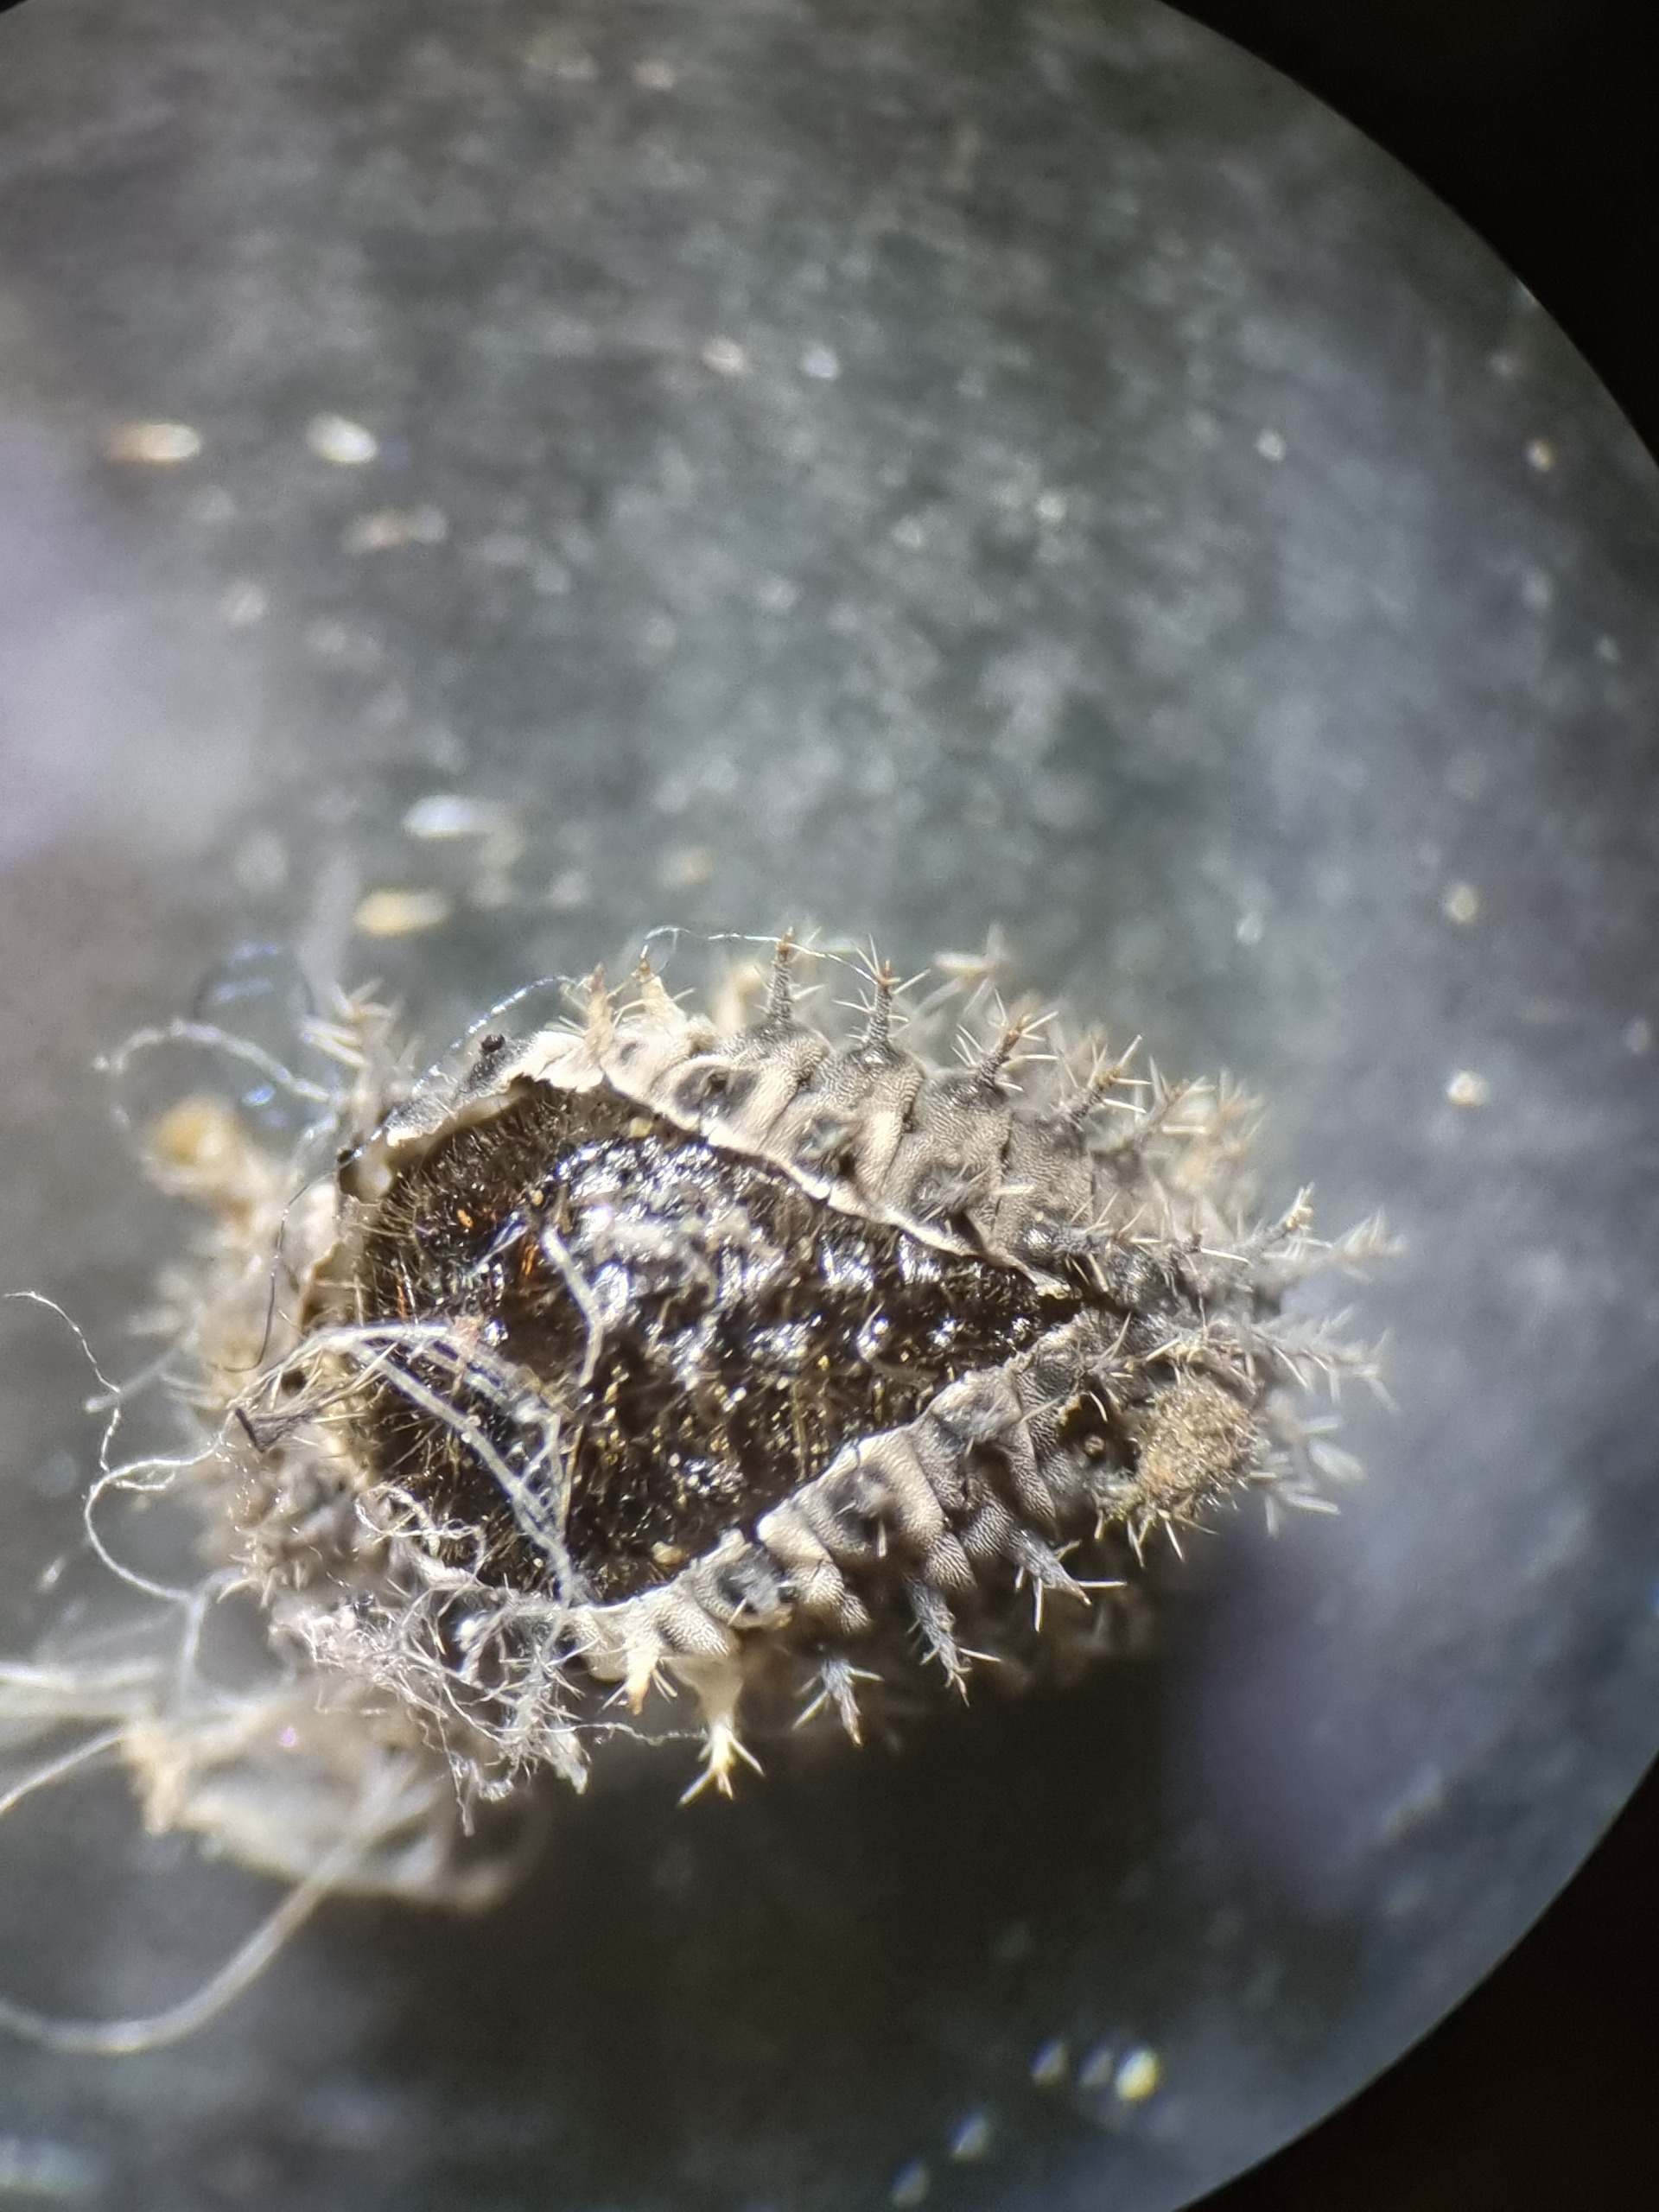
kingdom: Animalia
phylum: Arthropoda
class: Insecta
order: Coleoptera
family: Coccinellidae
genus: Chilocorus
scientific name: Chilocorus bipustulatus
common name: Lyngmariehøne
